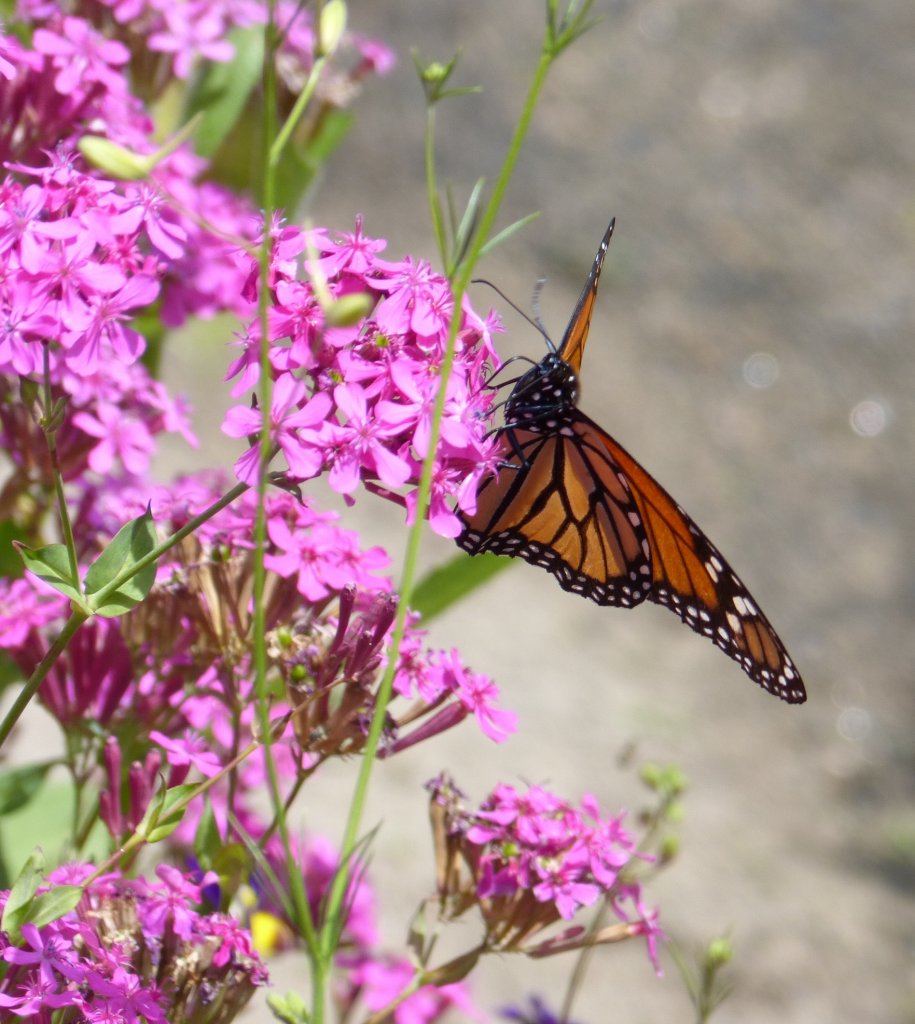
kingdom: Animalia
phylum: Arthropoda
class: Insecta
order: Lepidoptera
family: Nymphalidae
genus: Danaus
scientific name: Danaus plexippus
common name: Monarch
